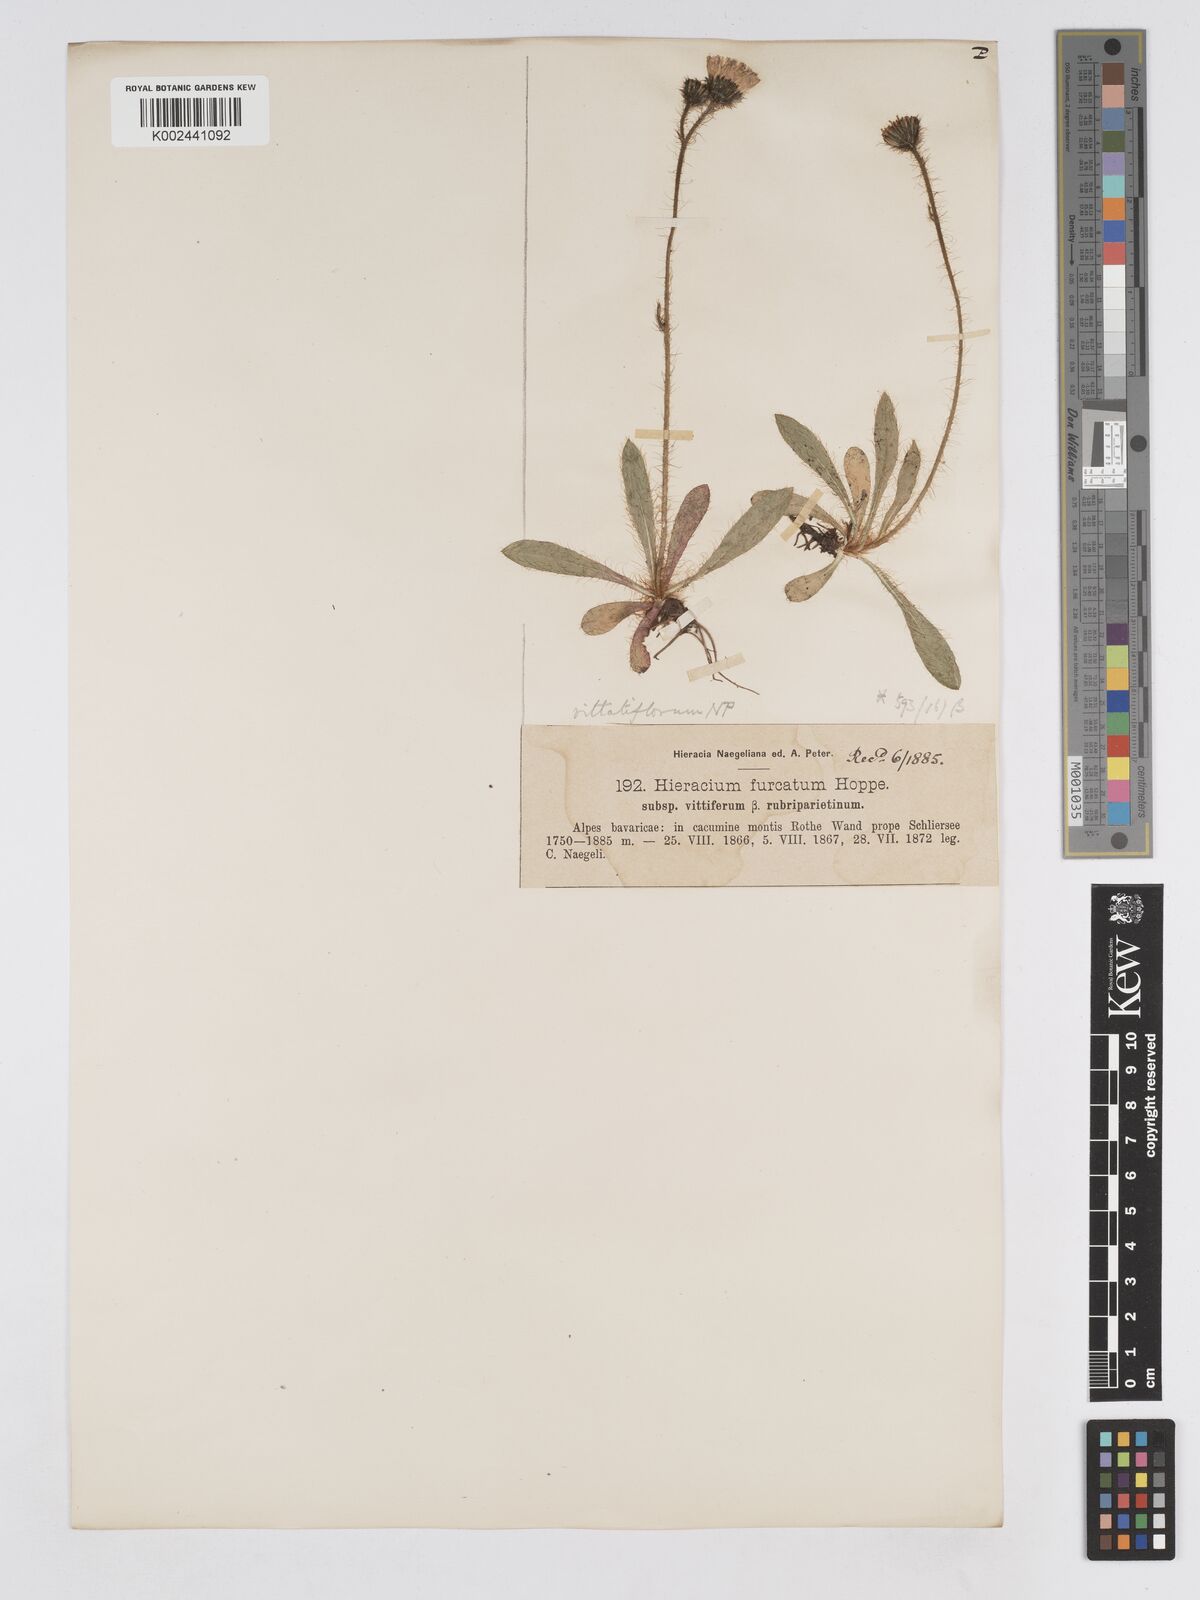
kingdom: Plantae
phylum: Tracheophyta
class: Magnoliopsida
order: Asterales
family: Asteraceae
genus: Pilosella
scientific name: Pilosella sphaerocephala
